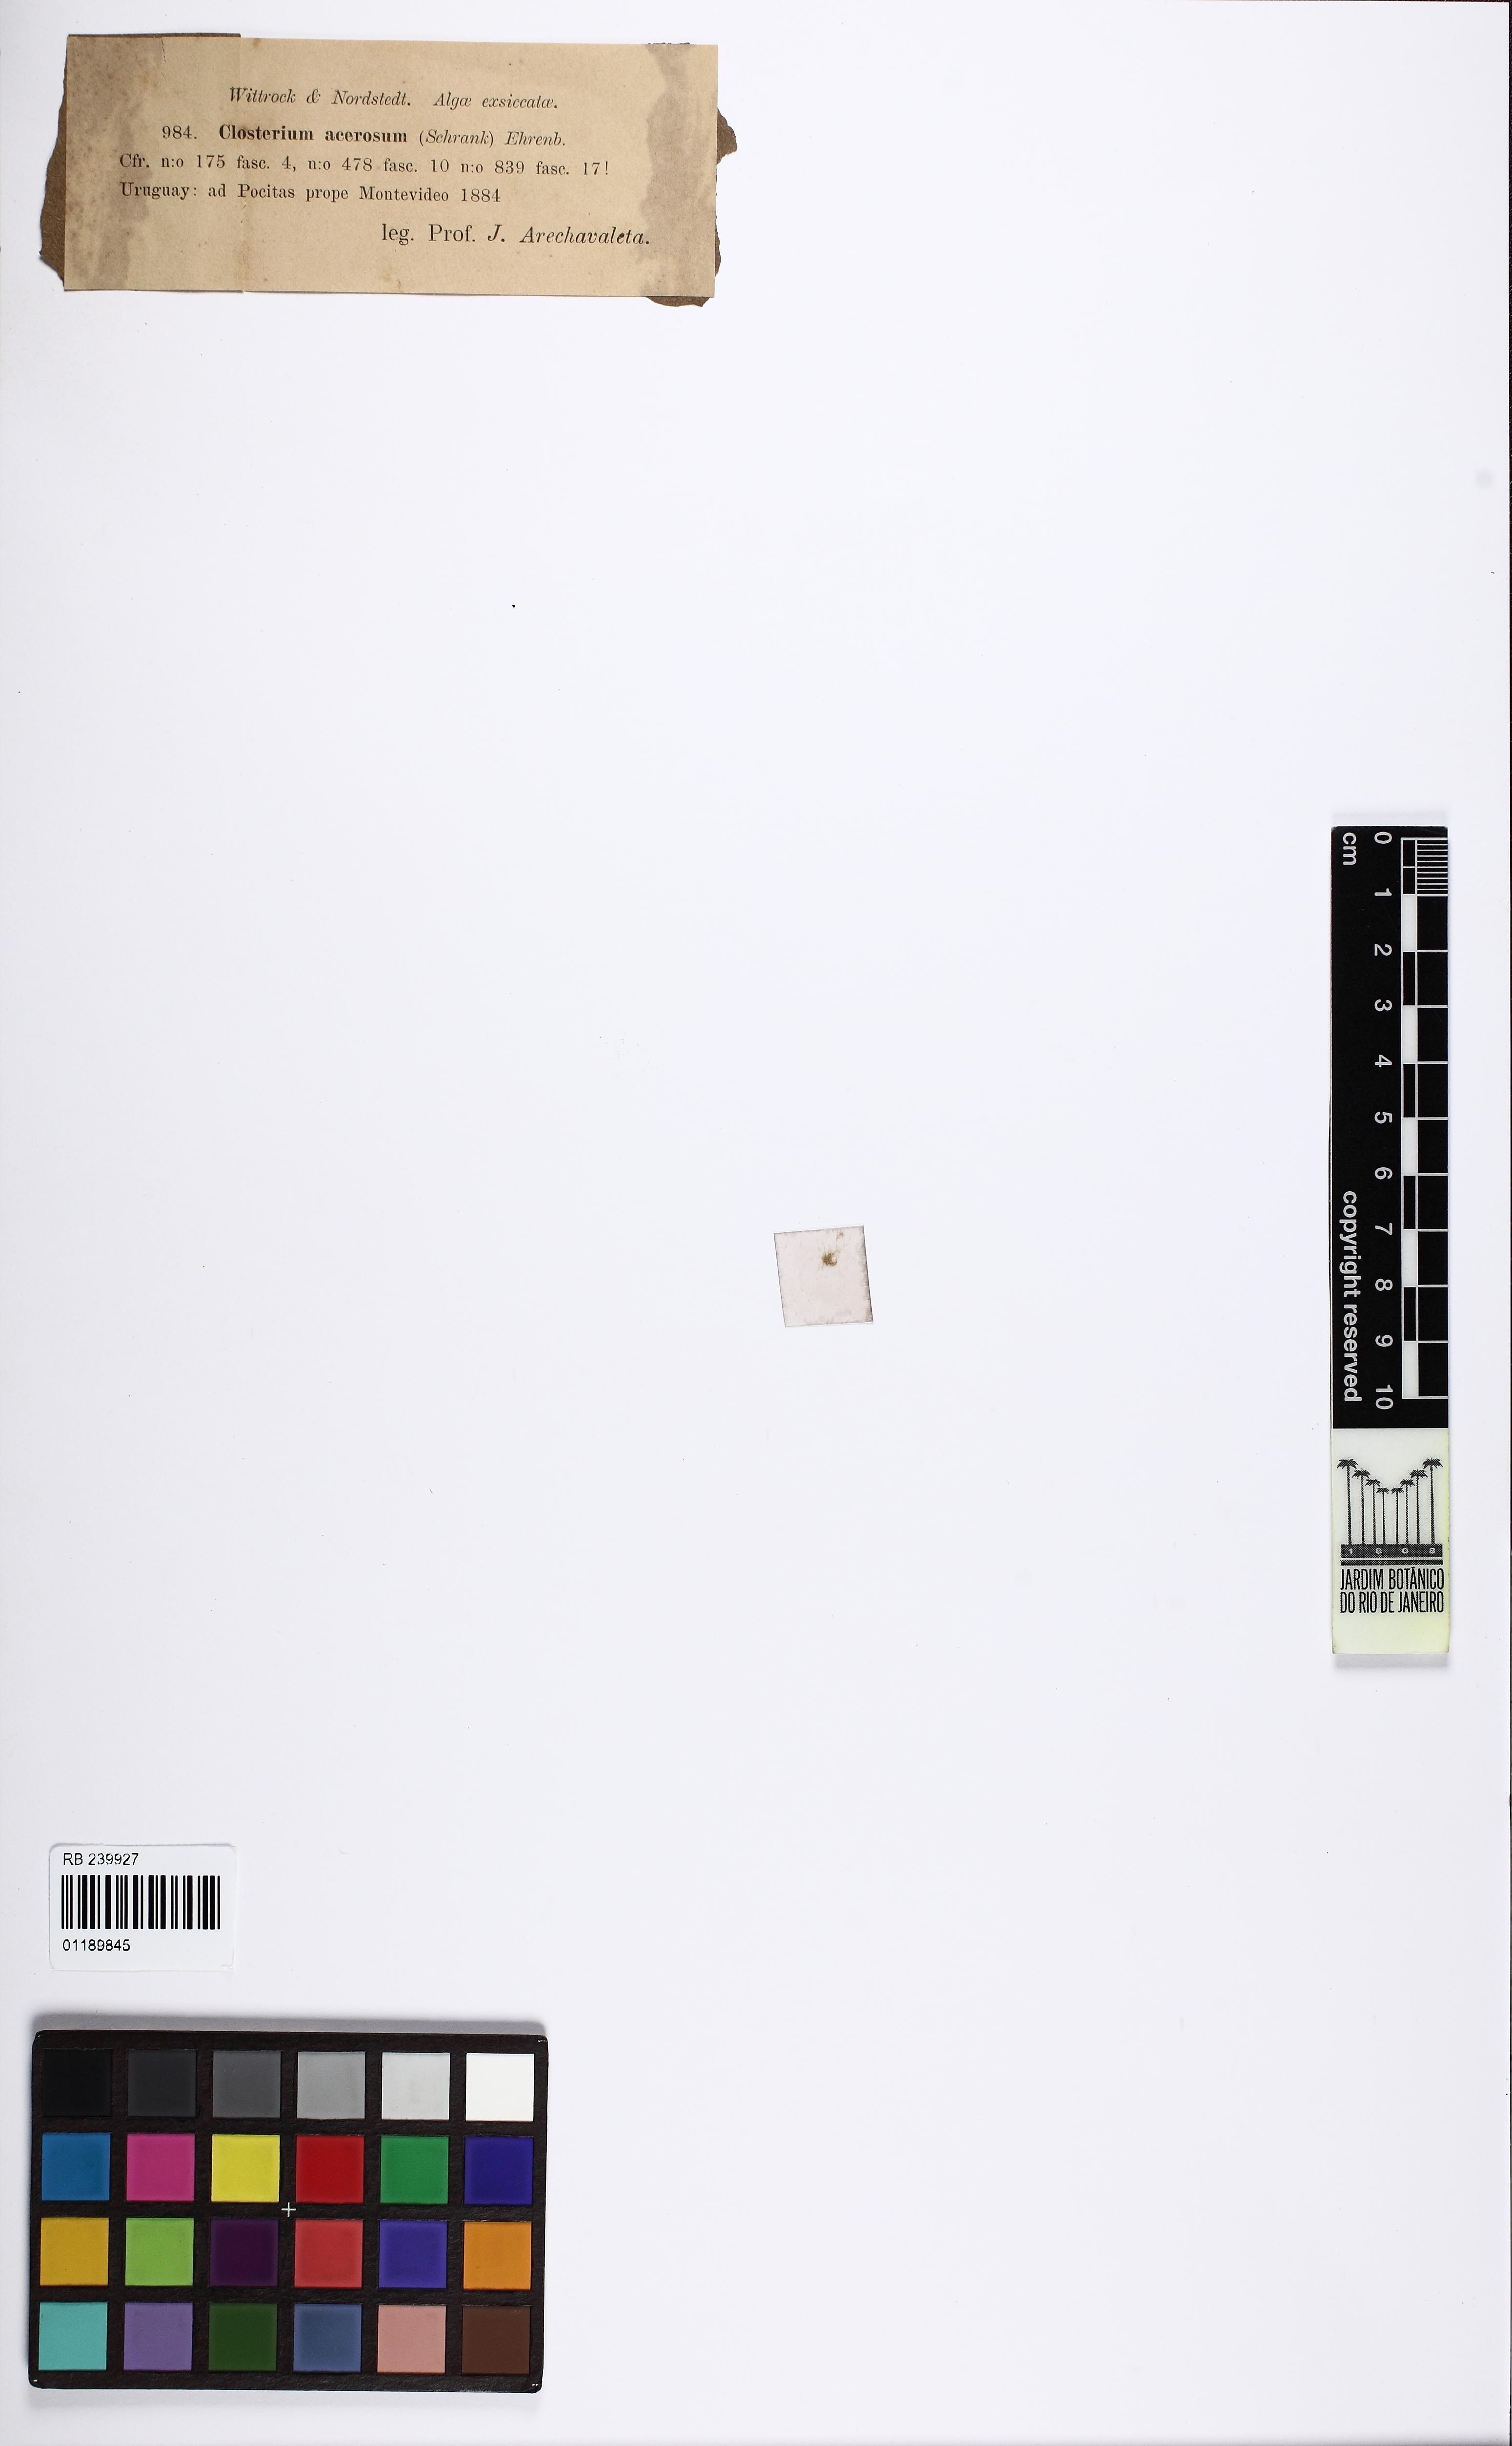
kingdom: Plantae
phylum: Charophyta
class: Zygnematophyceae
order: Zygnematales
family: Closteriaceae
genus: Closterium
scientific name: Closterium acerosum
